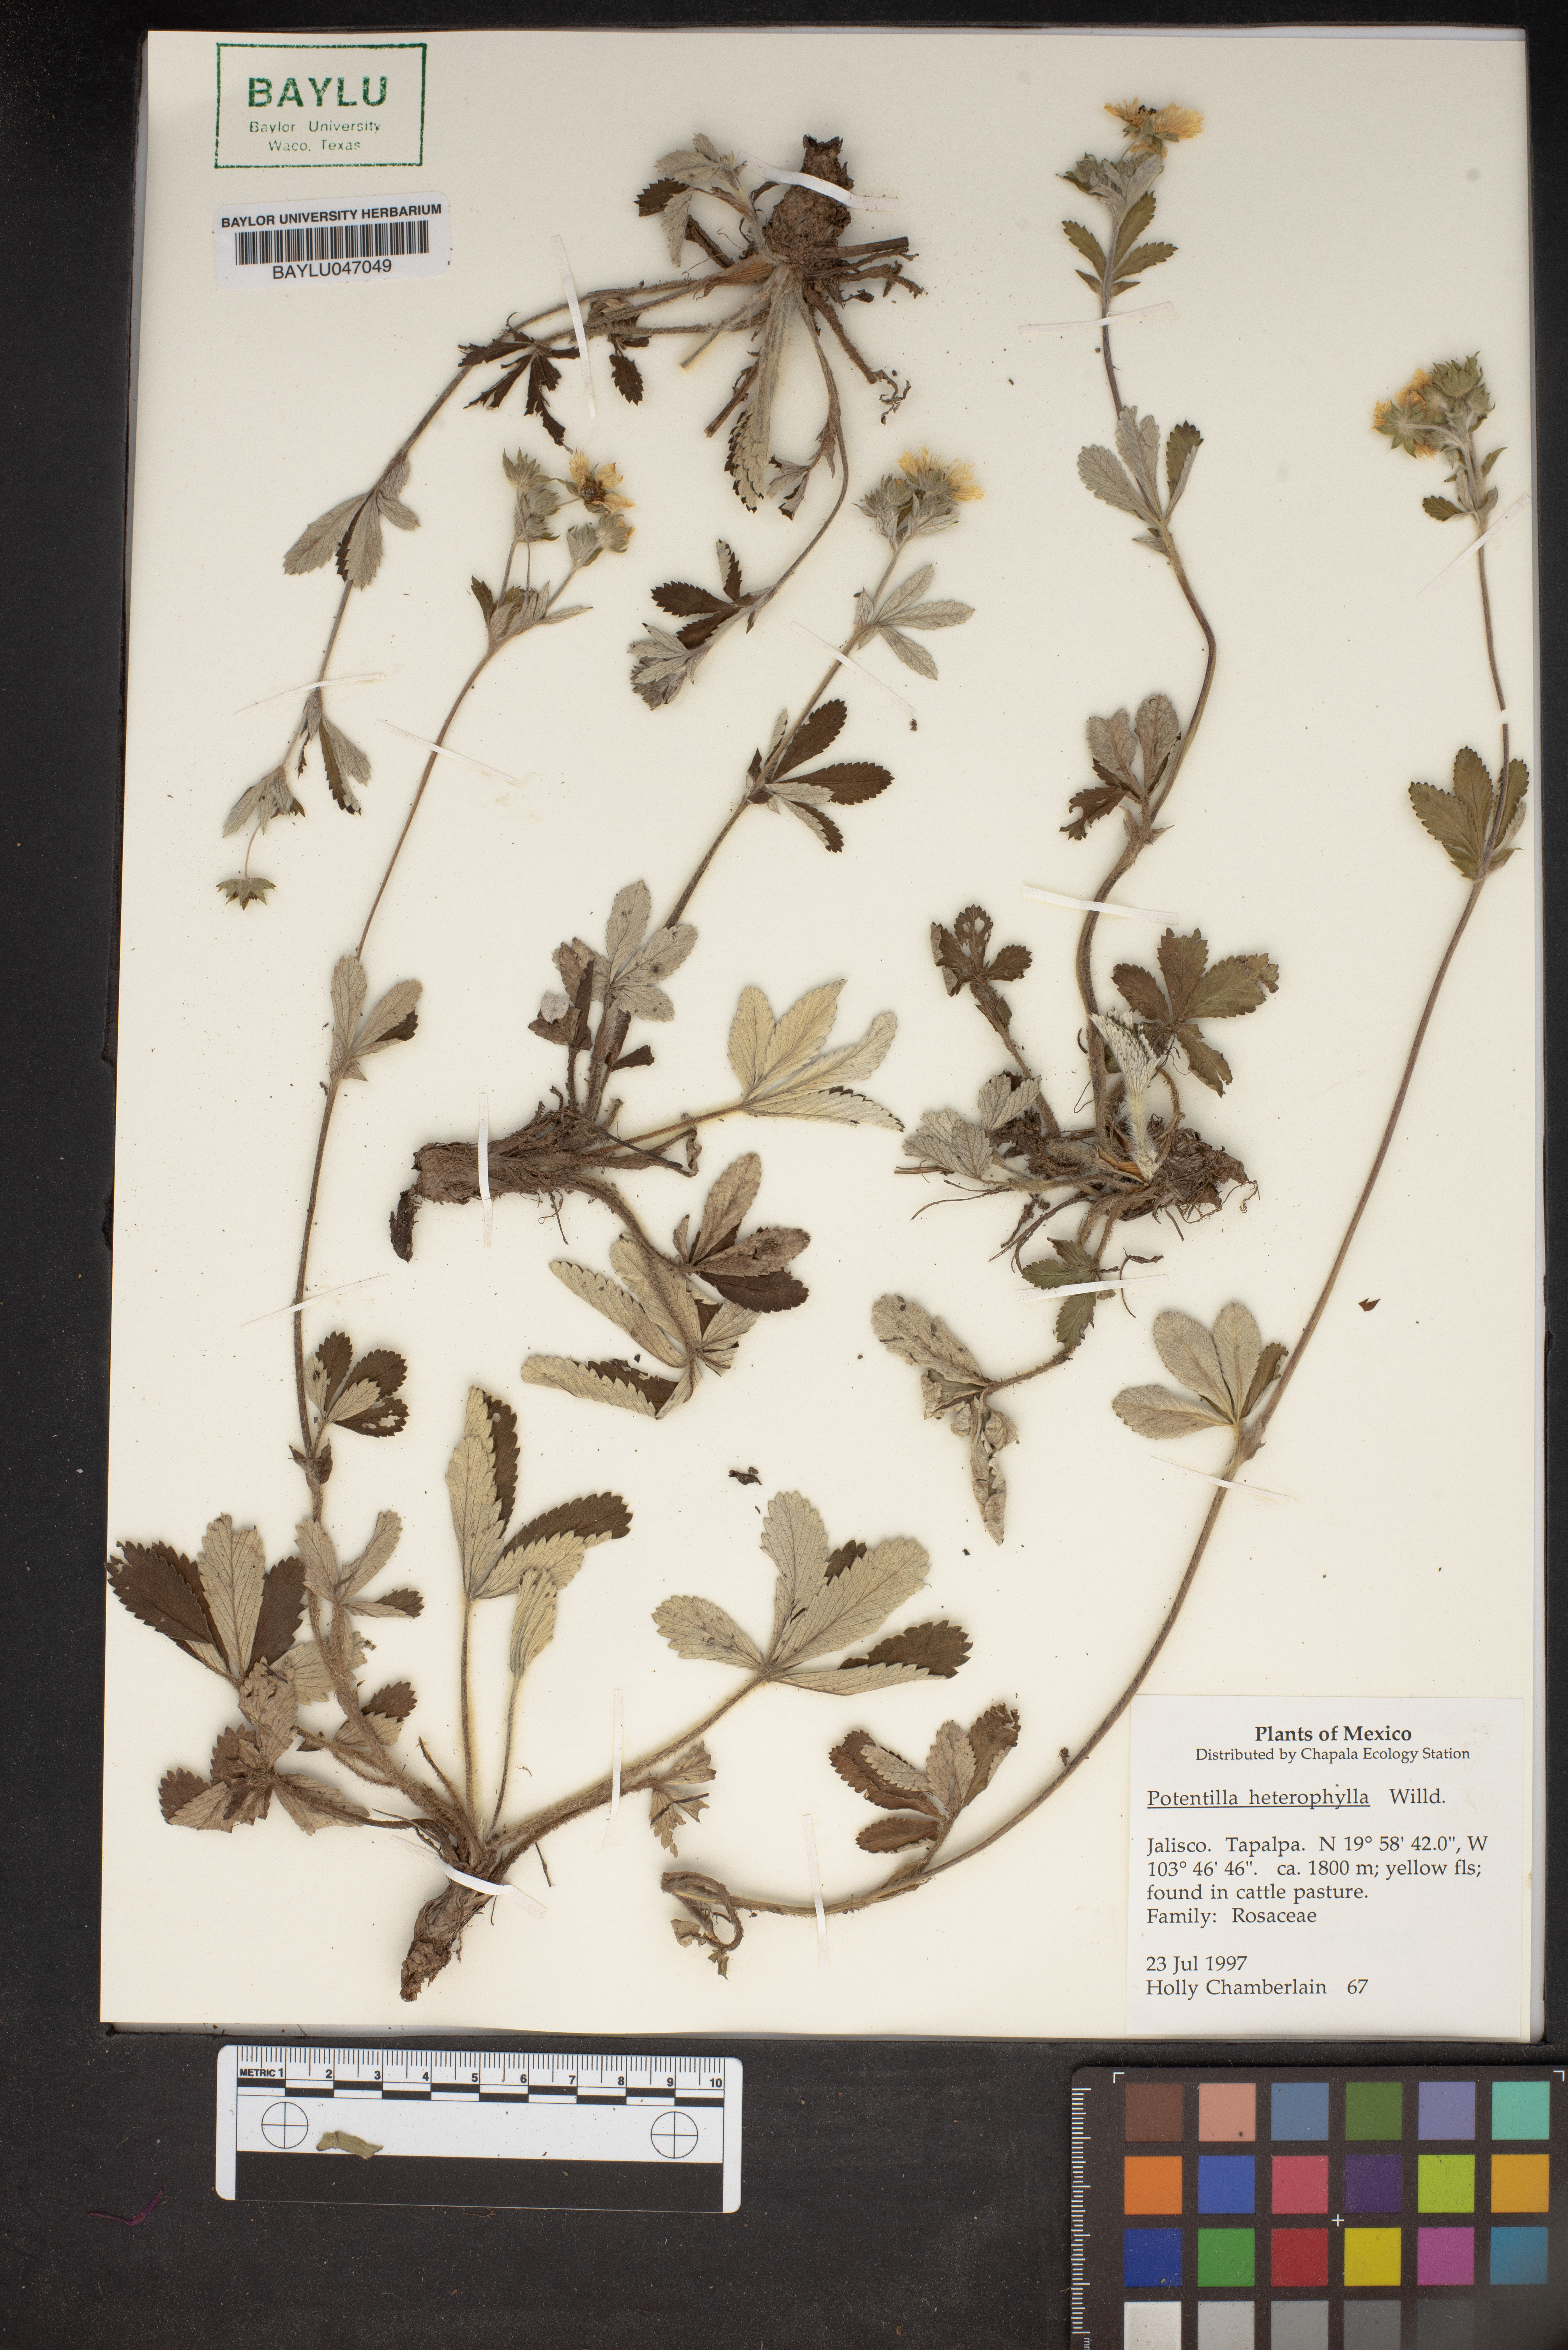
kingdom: Plantae
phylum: Tracheophyta
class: Magnoliopsida
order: Rosales
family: Rosaceae
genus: Potentilla
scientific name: Potentilla heterosepala
